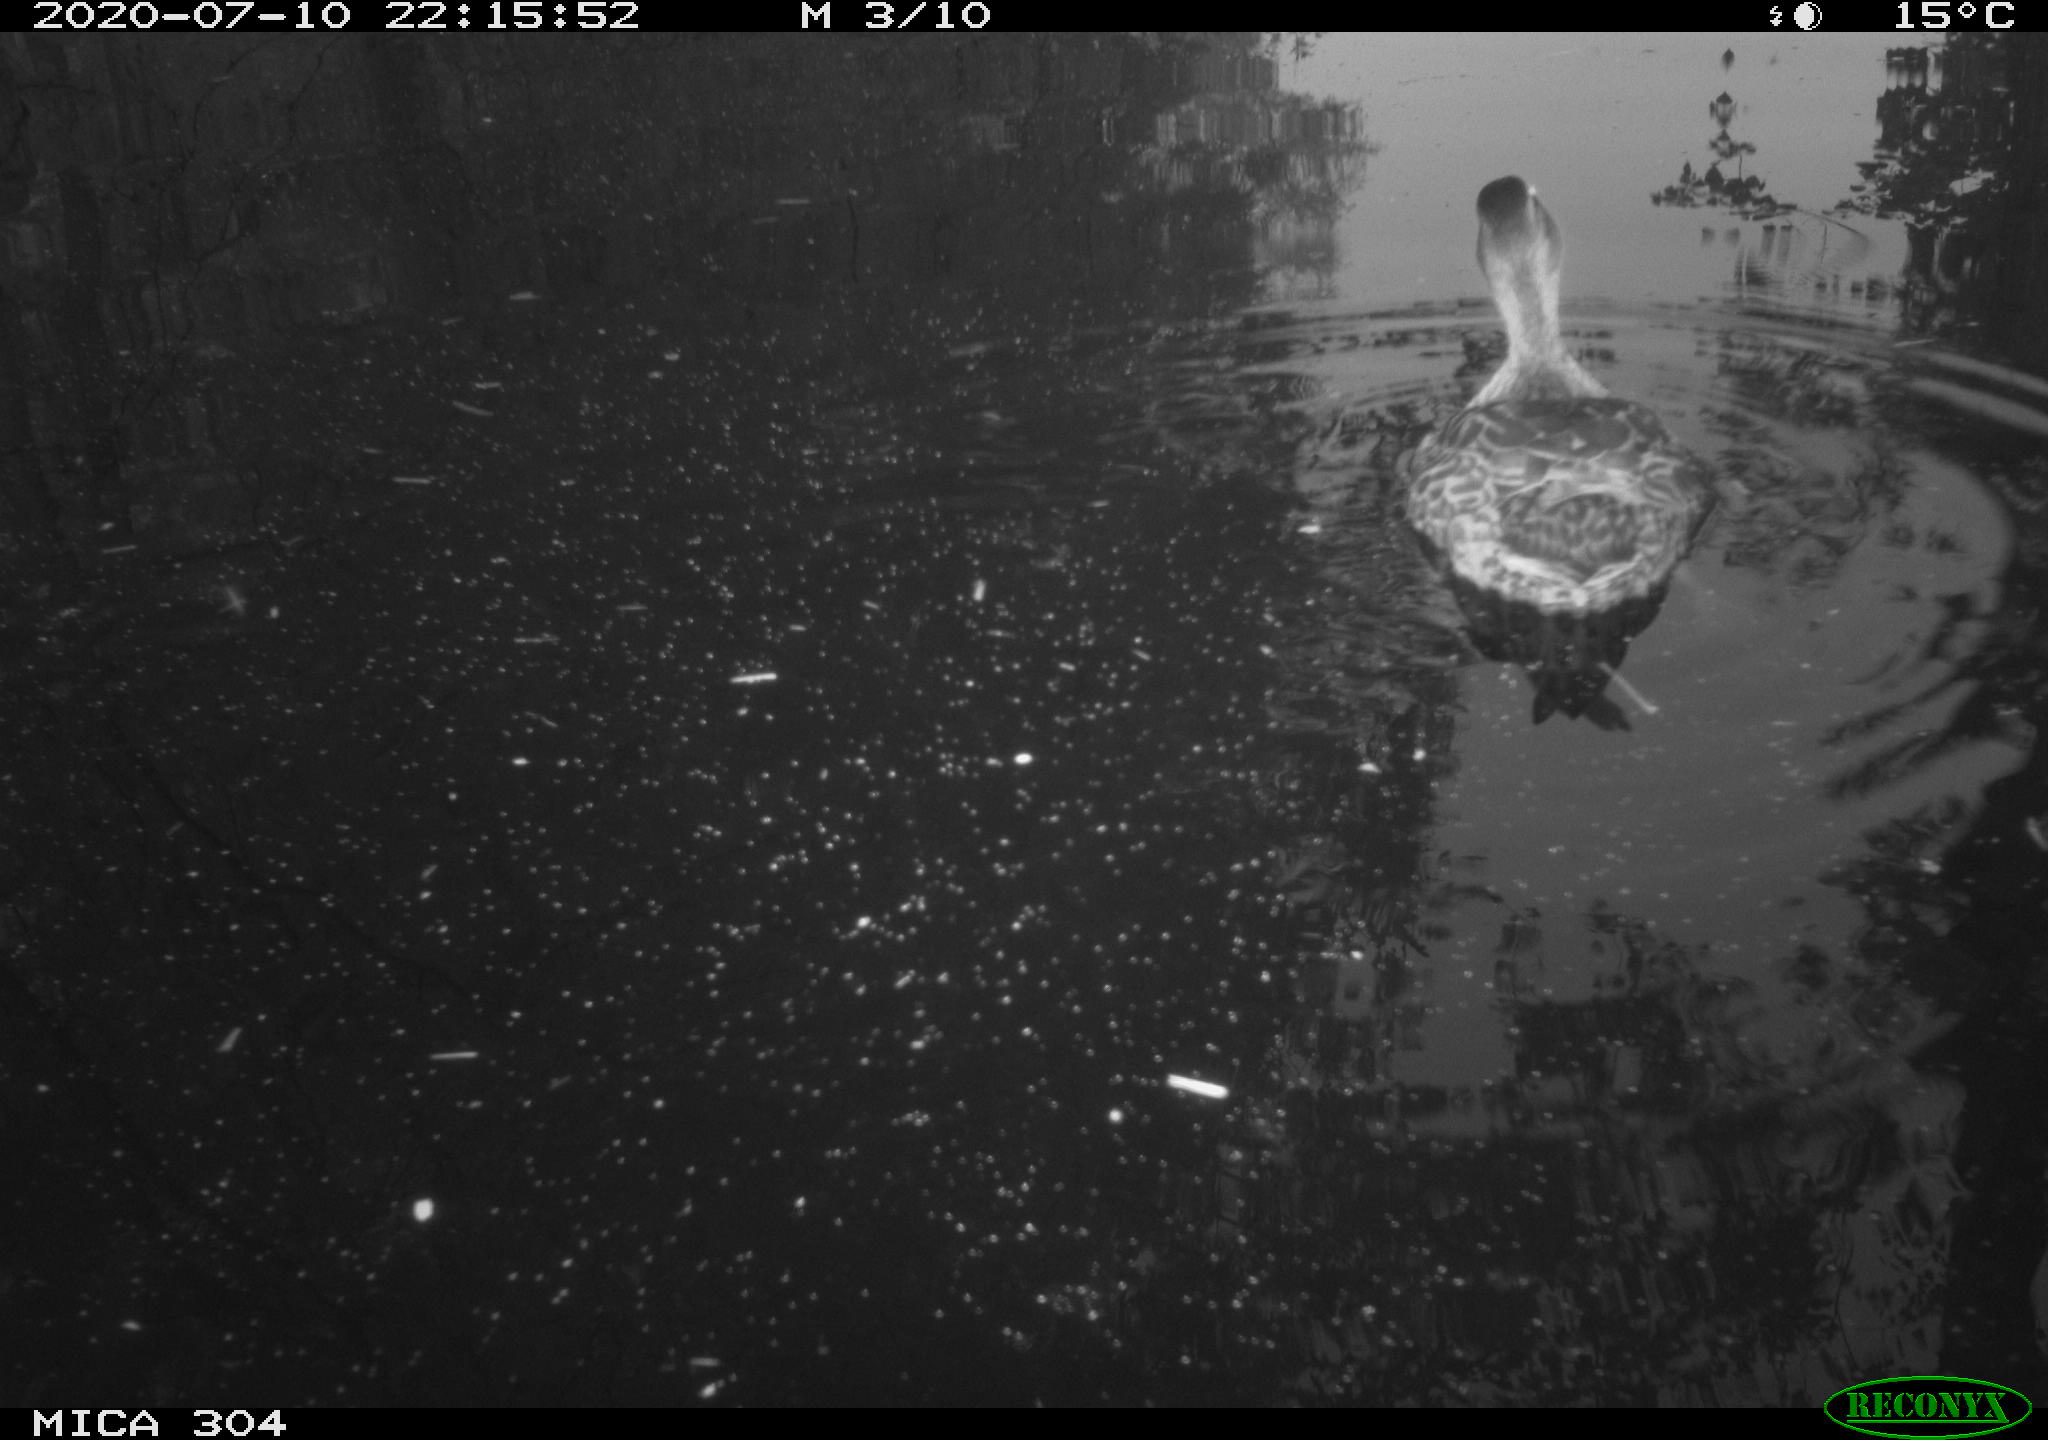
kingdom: Animalia
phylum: Chordata
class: Aves
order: Anseriformes
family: Anatidae
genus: Anas
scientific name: Anas platyrhynchos
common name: Mallard
